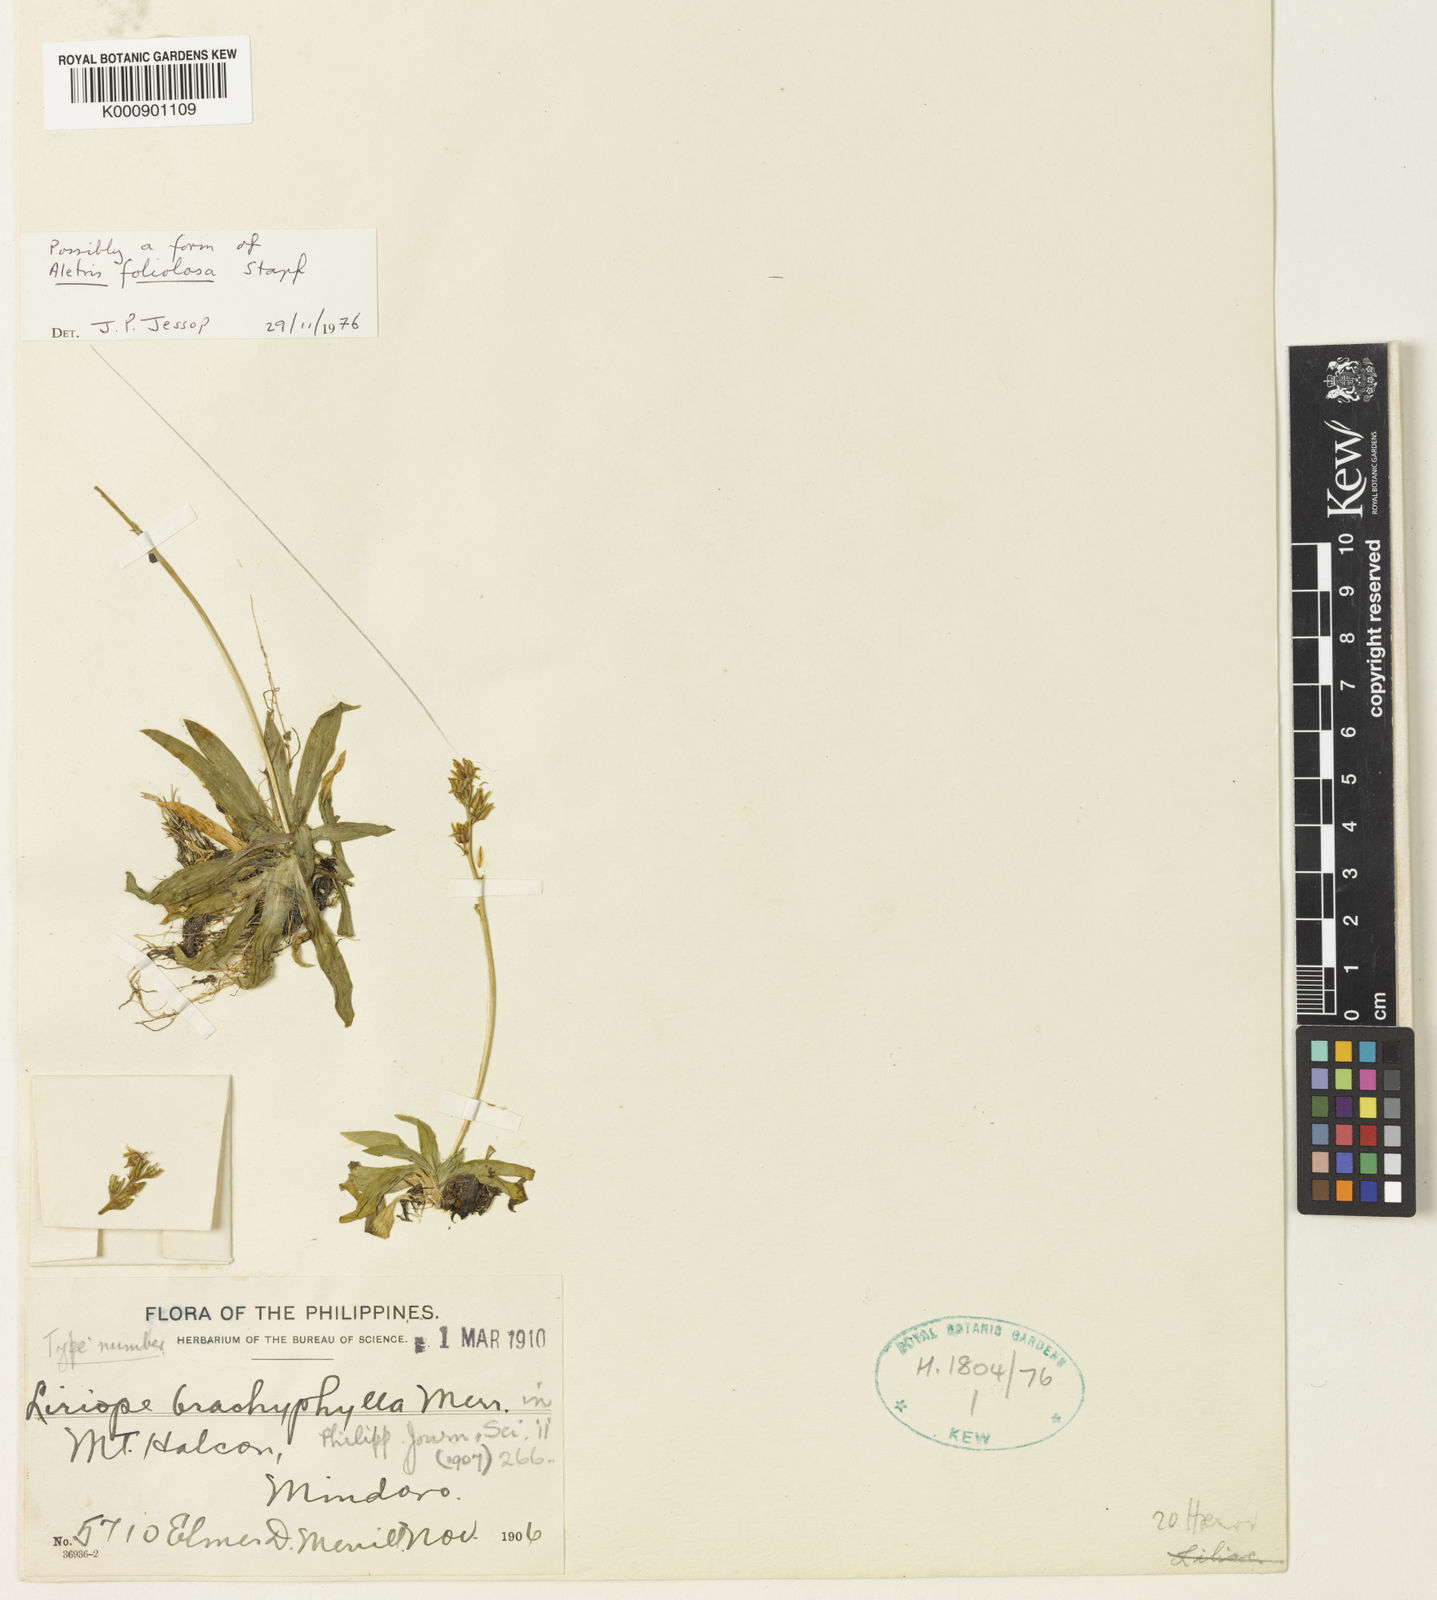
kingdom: Plantae
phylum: Tracheophyta
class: Liliopsida
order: Dioscoreales
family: Nartheciaceae
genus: Aletris
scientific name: Aletris foliolosa
